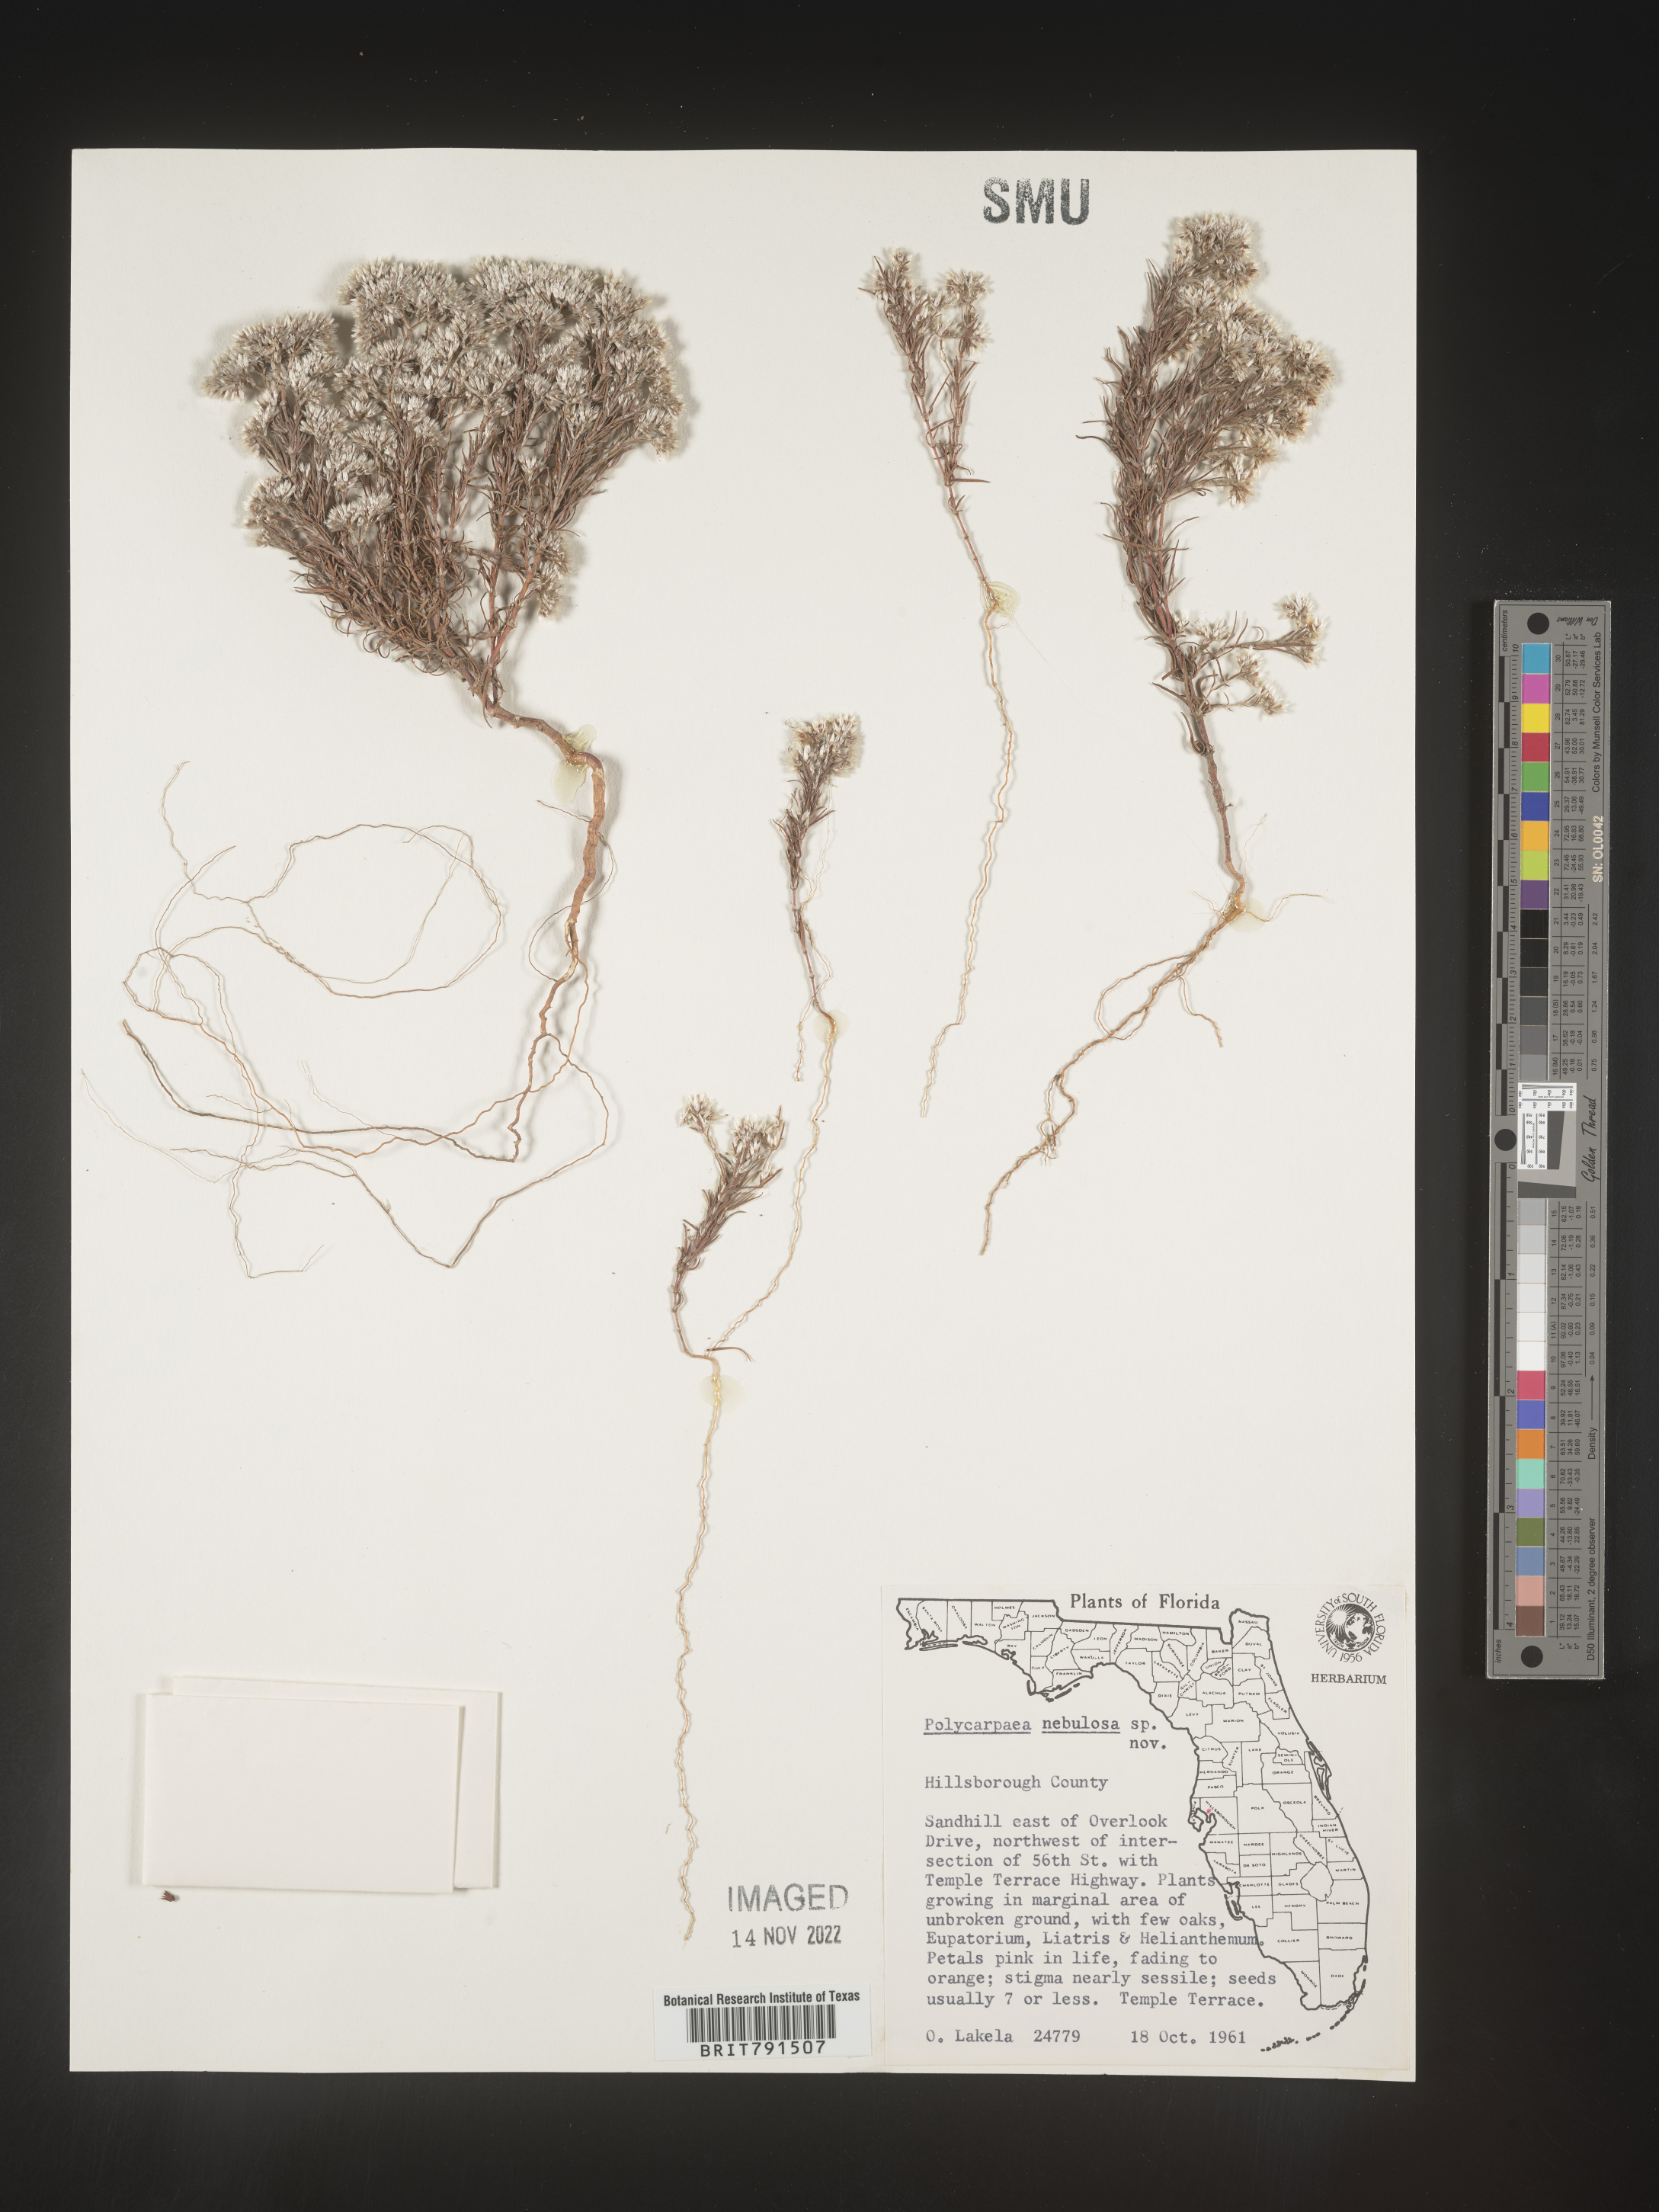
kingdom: Plantae
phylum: Tracheophyta
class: Magnoliopsida
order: Caryophyllales
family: Caryophyllaceae
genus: Polycarpaea
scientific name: Polycarpaea
